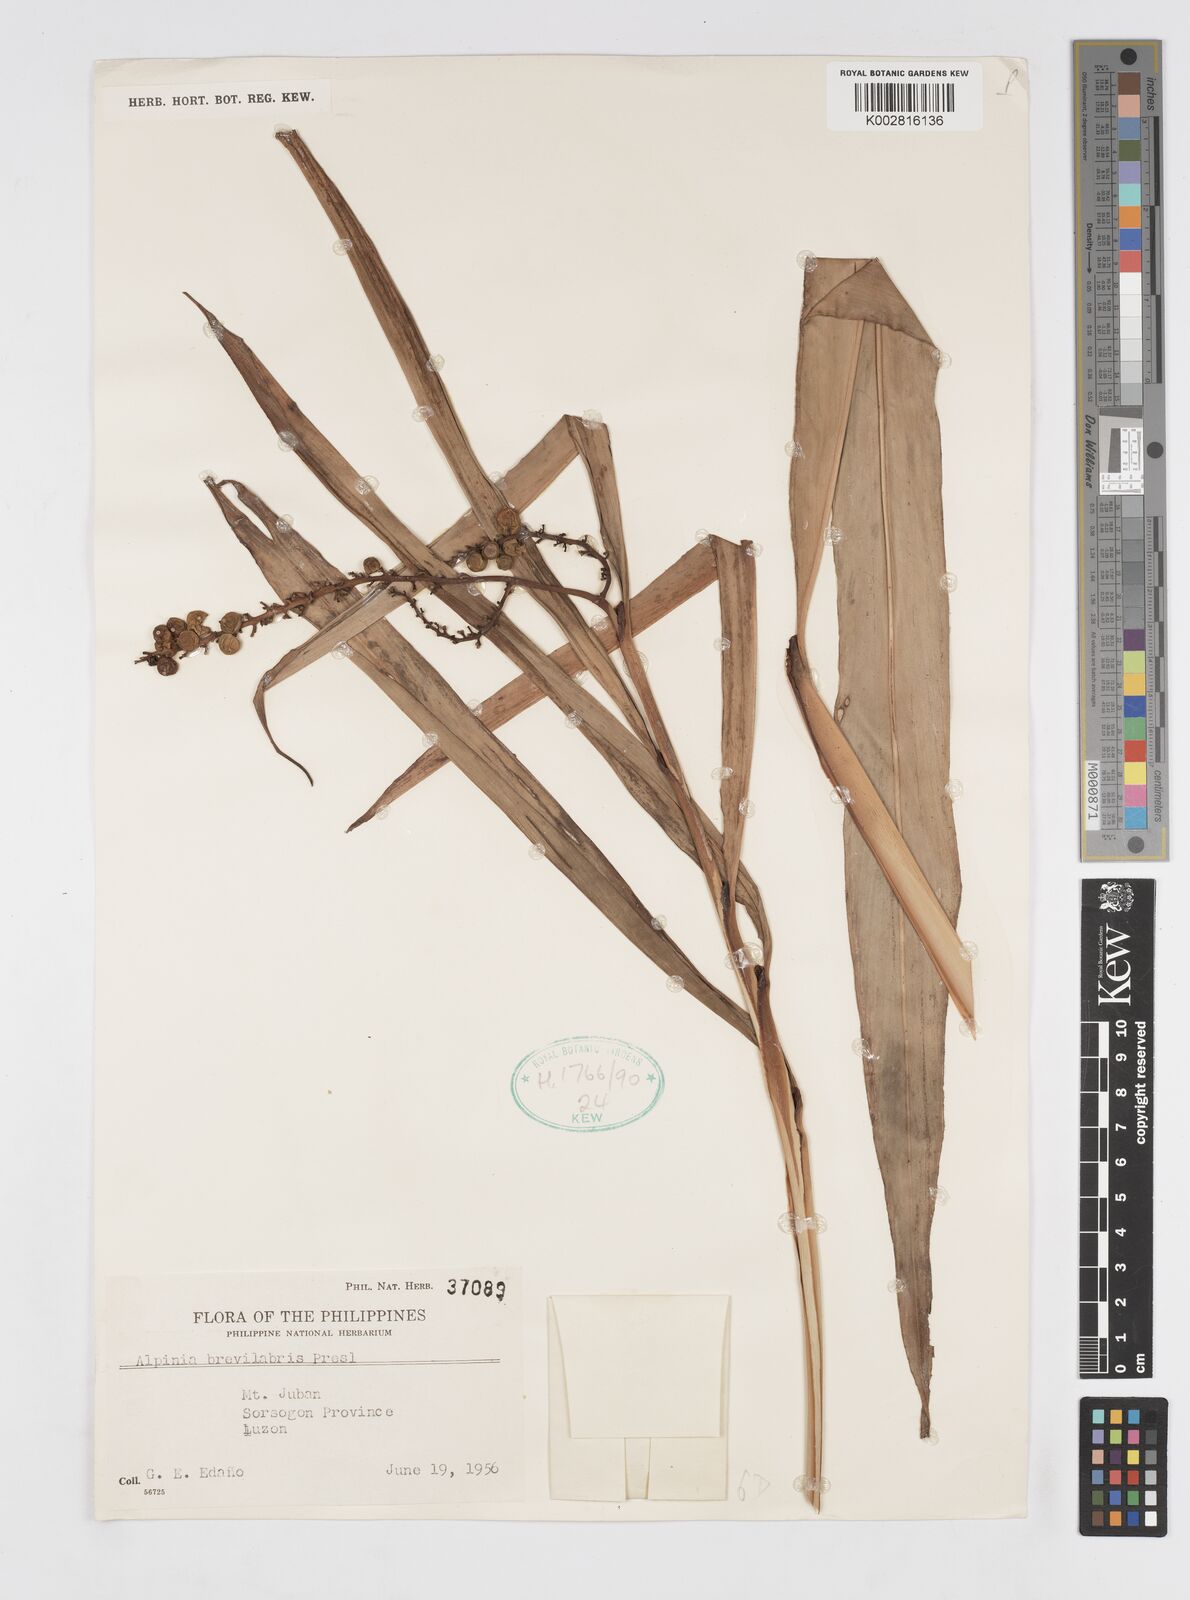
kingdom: Plantae
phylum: Tracheophyta
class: Liliopsida
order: Zingiberales
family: Zingiberaceae
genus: Alpinia
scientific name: Alpinia brevilabris
